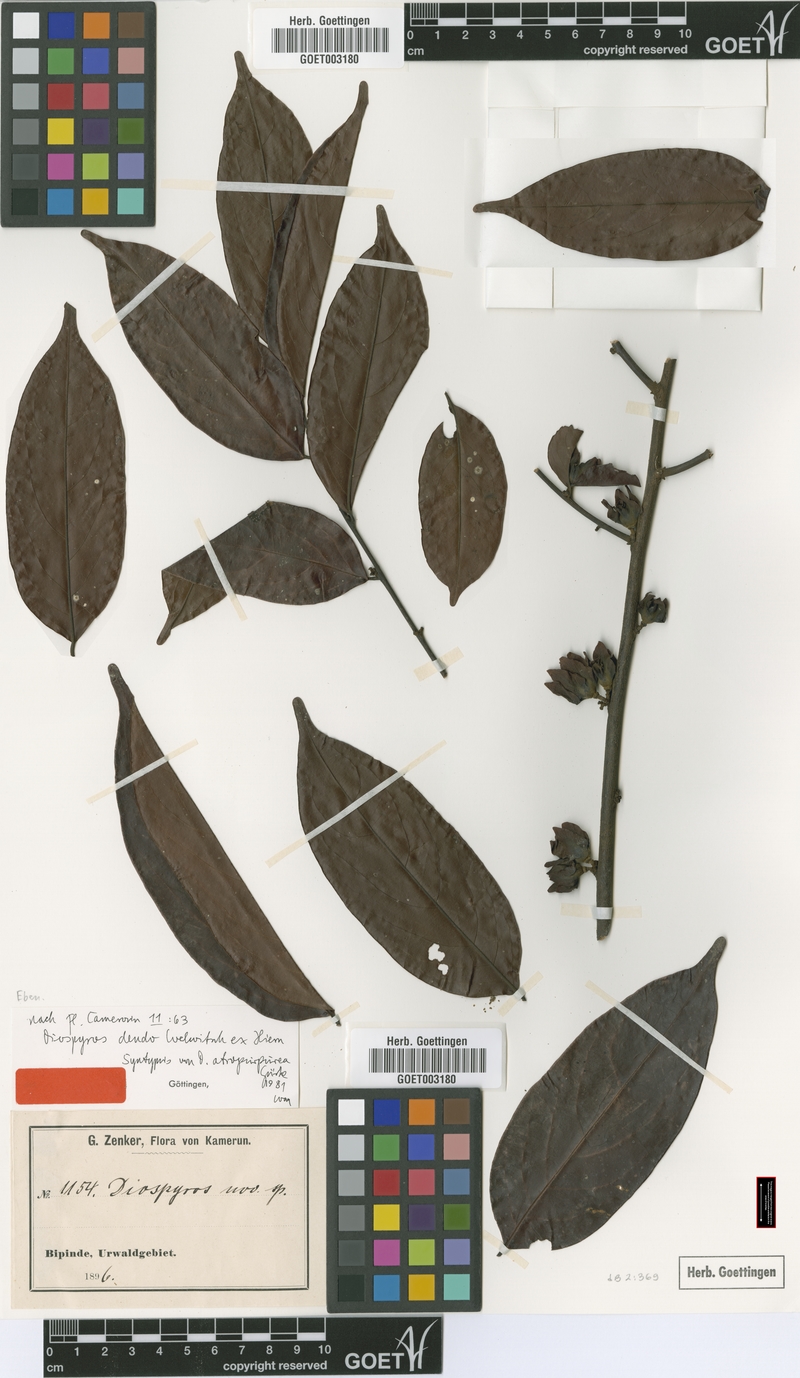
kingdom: Plantae
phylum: Tracheophyta
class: Magnoliopsida
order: Ericales
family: Ebenaceae
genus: Diospyros
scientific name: Diospyros dendo
